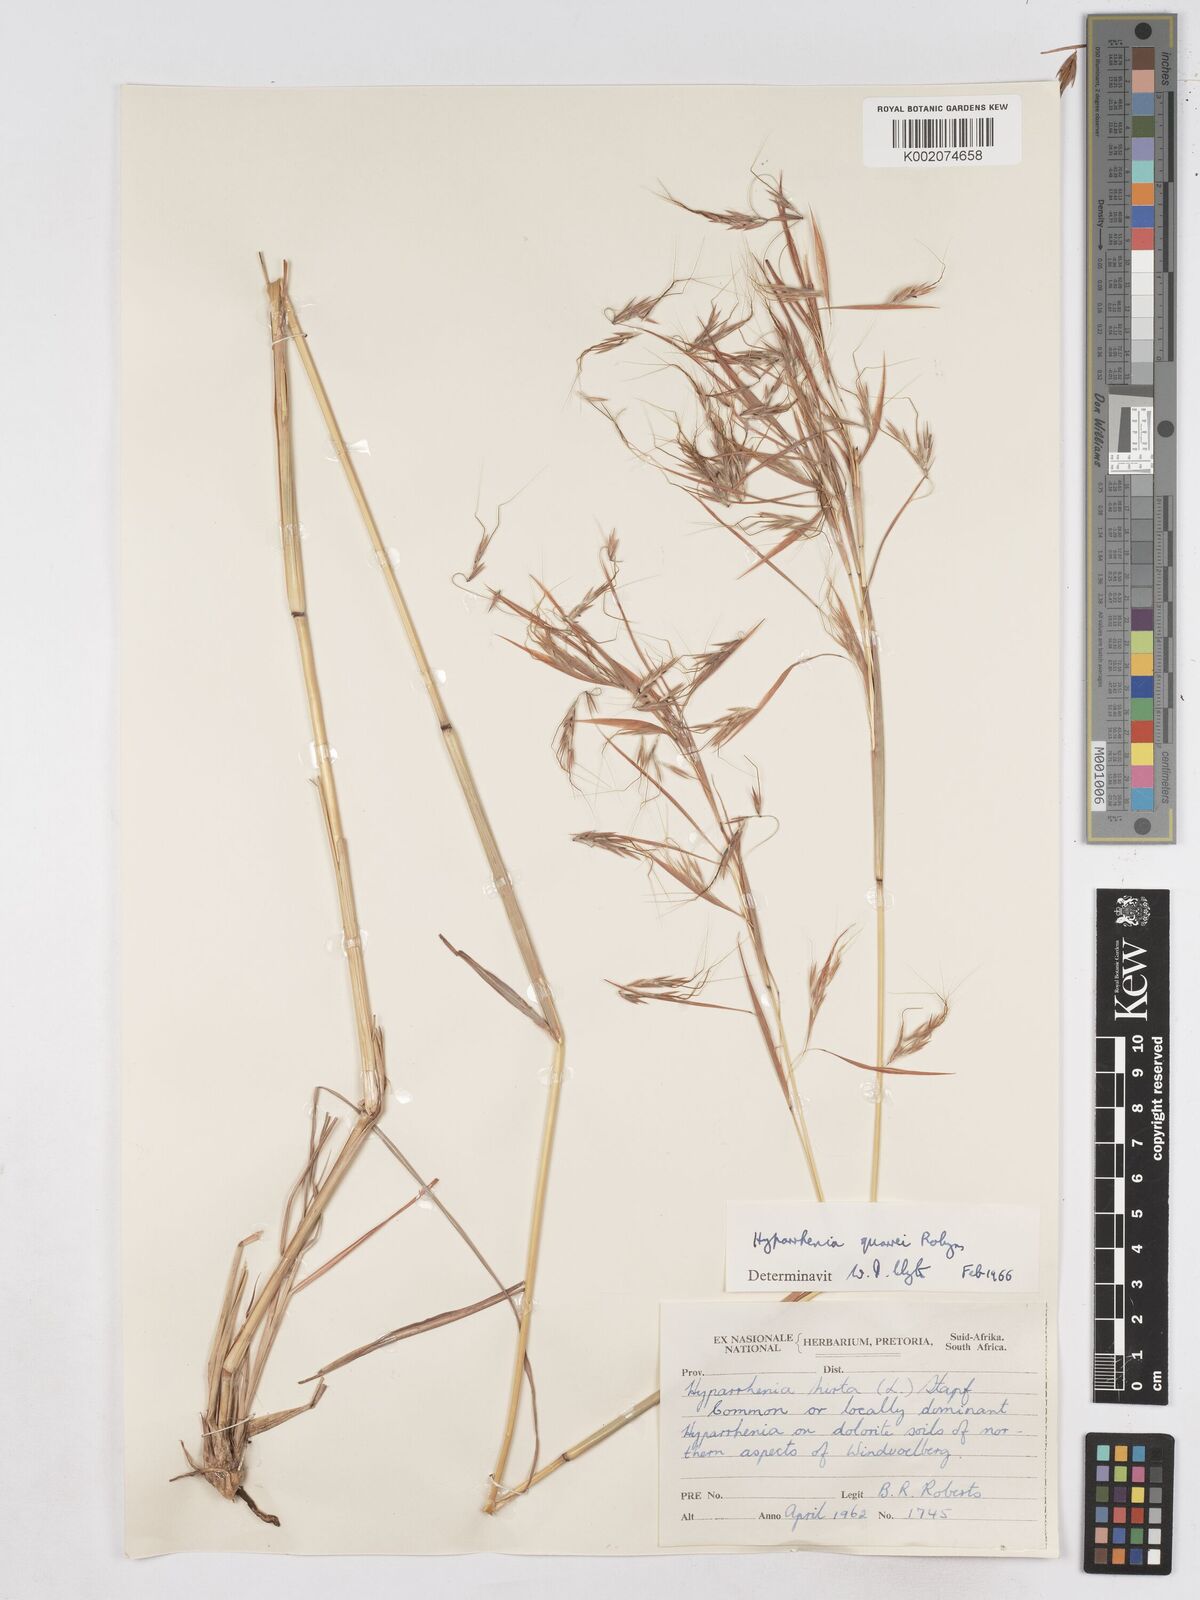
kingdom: Plantae
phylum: Tracheophyta
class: Liliopsida
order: Poales
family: Poaceae
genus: Hyparrhenia
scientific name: Hyparrhenia quarrei
